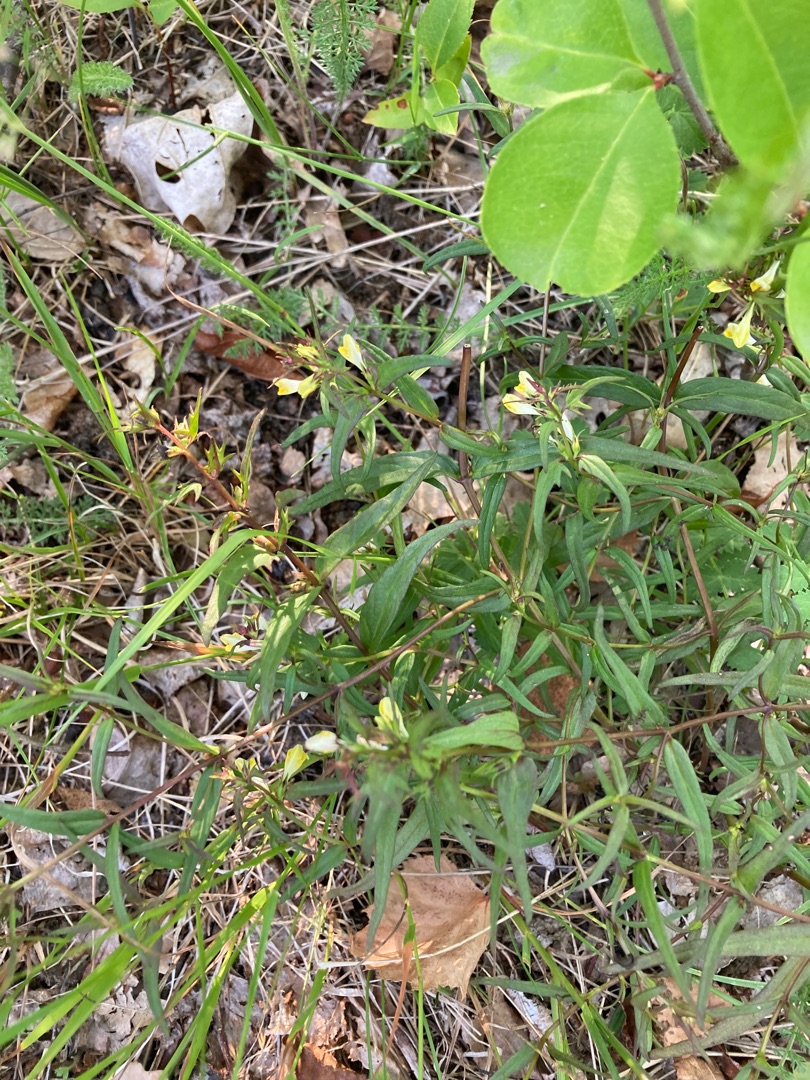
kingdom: Plantae
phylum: Tracheophyta
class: Magnoliopsida
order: Lamiales
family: Orobanchaceae
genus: Melampyrum
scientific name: Melampyrum pratense
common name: Almindelig kohvede
